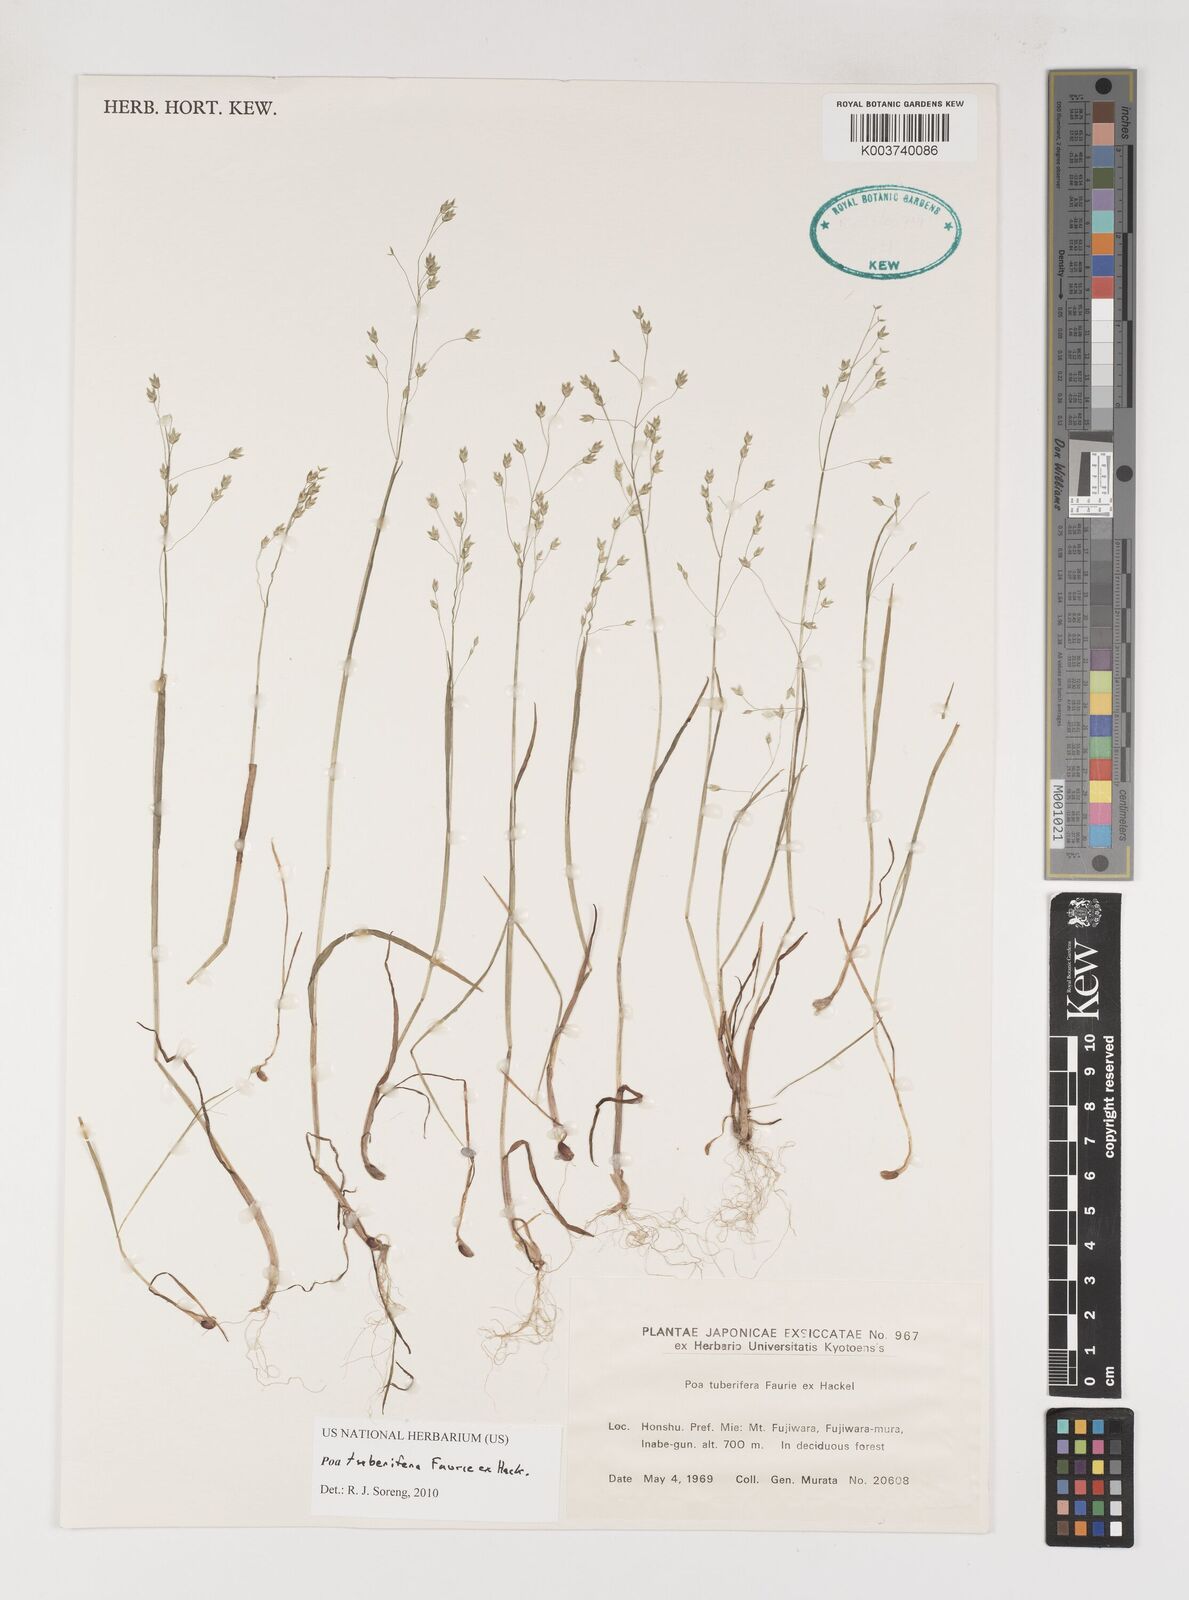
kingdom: Plantae
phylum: Tracheophyta
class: Liliopsida
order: Poales
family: Poaceae
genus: Poa
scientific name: Poa tuberifera
